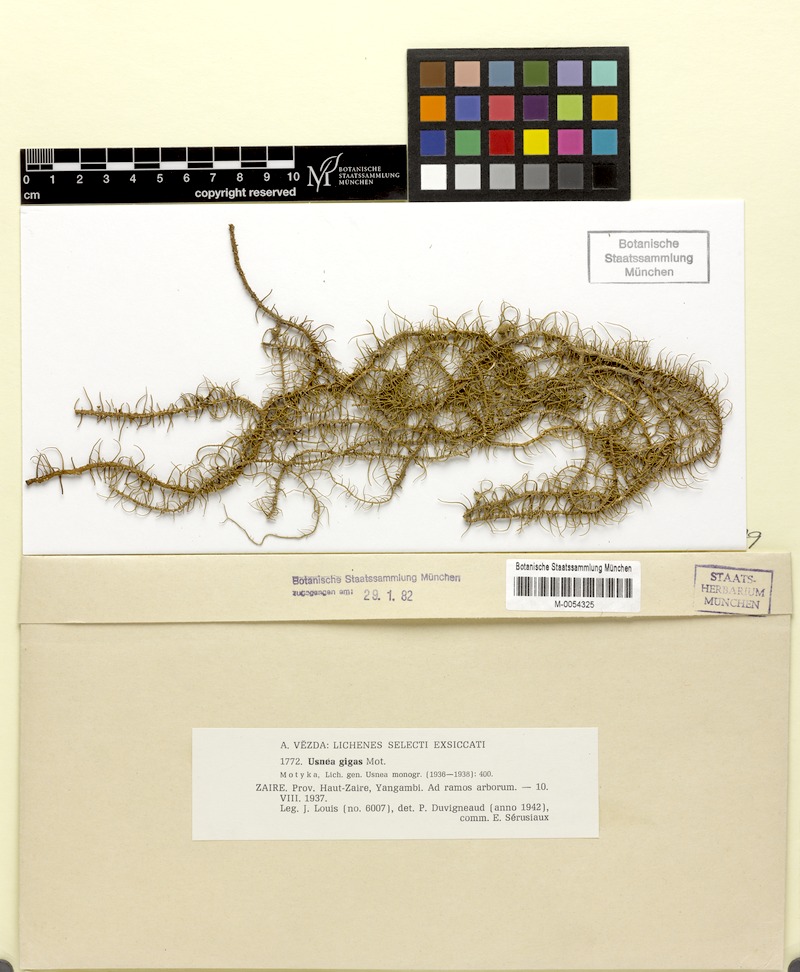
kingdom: Fungi
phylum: Ascomycota
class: Lecanoromycetes
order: Lecanorales
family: Parmeliaceae
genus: Usnea
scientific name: Usnea himantodes
